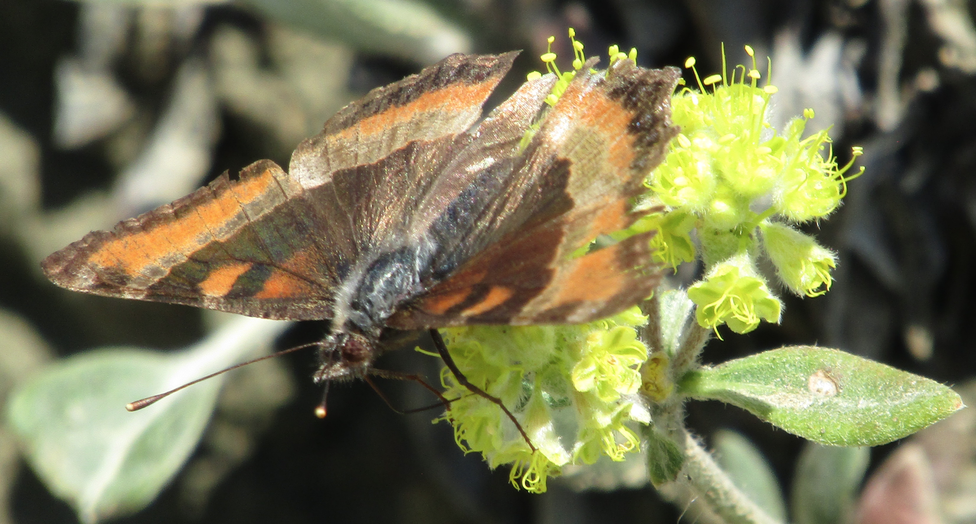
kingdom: Animalia
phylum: Arthropoda
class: Insecta
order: Lepidoptera
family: Nymphalidae
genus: Aglais
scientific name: Aglais milberti
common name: Milbert's Tortoiseshell
